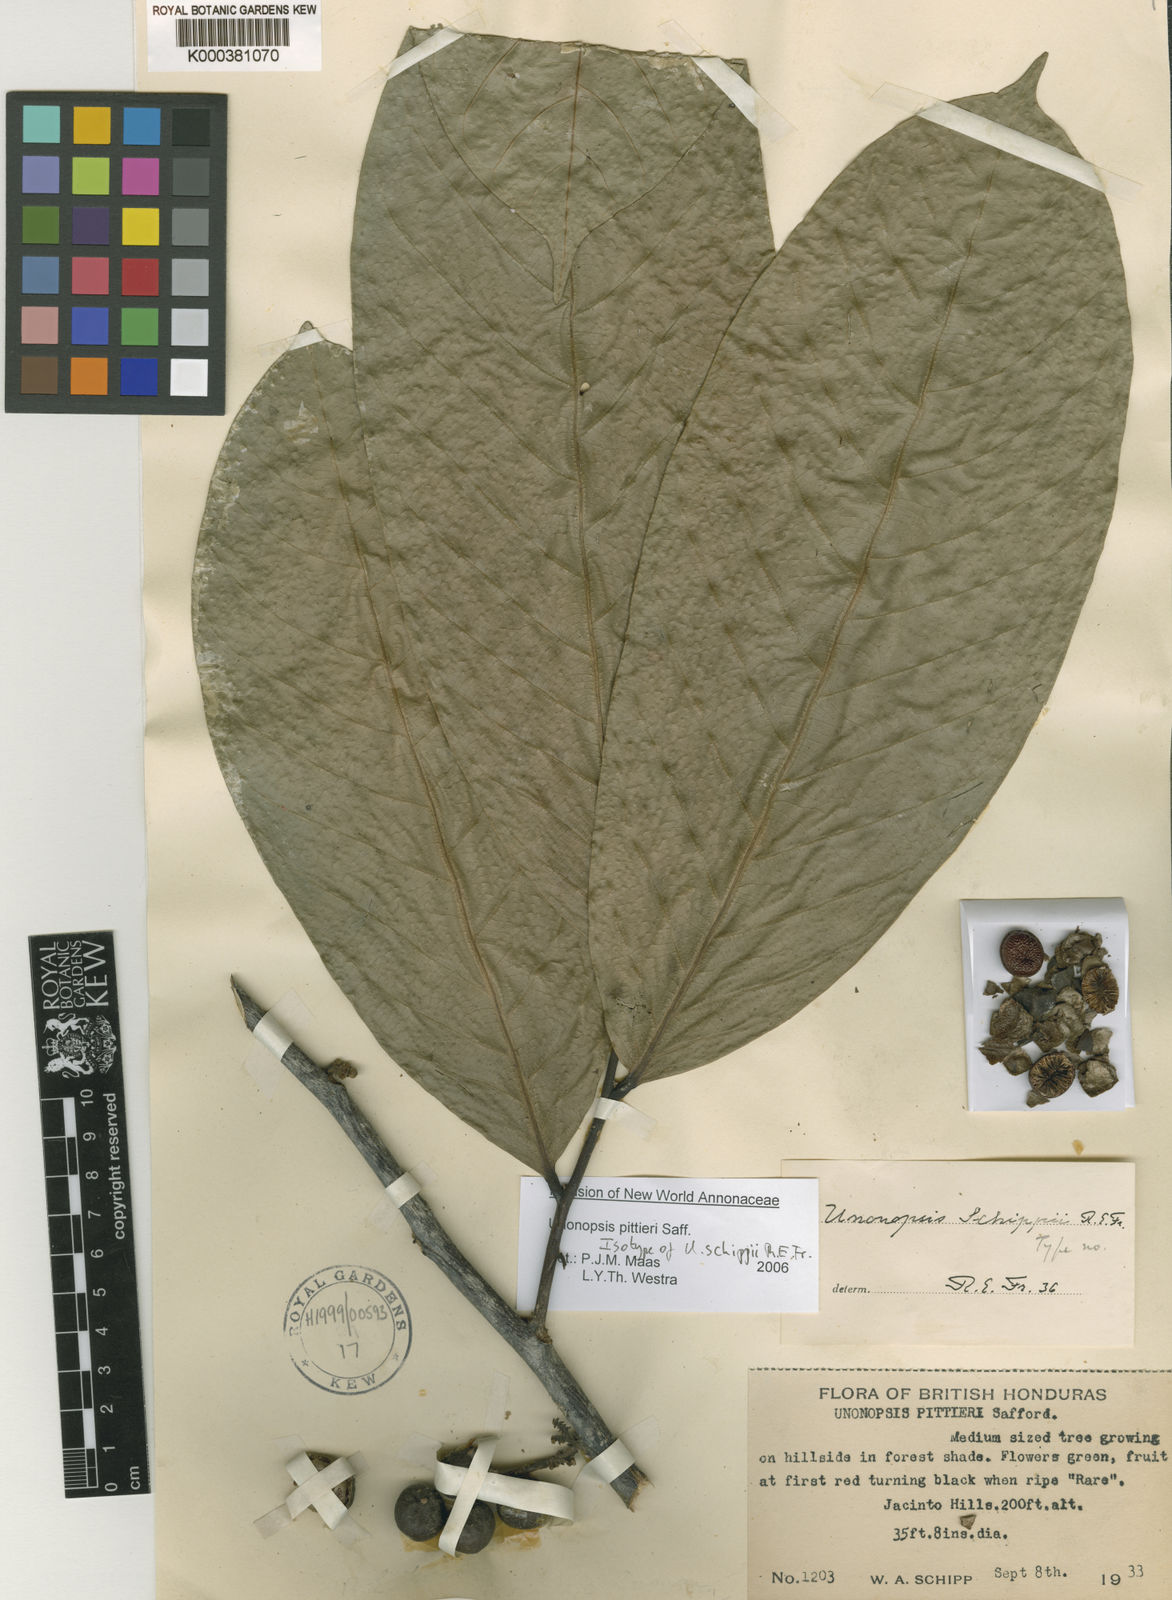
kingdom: Plantae
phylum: Tracheophyta
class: Magnoliopsida
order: Magnoliales
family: Annonaceae
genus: Unonopsis
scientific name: Unonopsis pittieri
